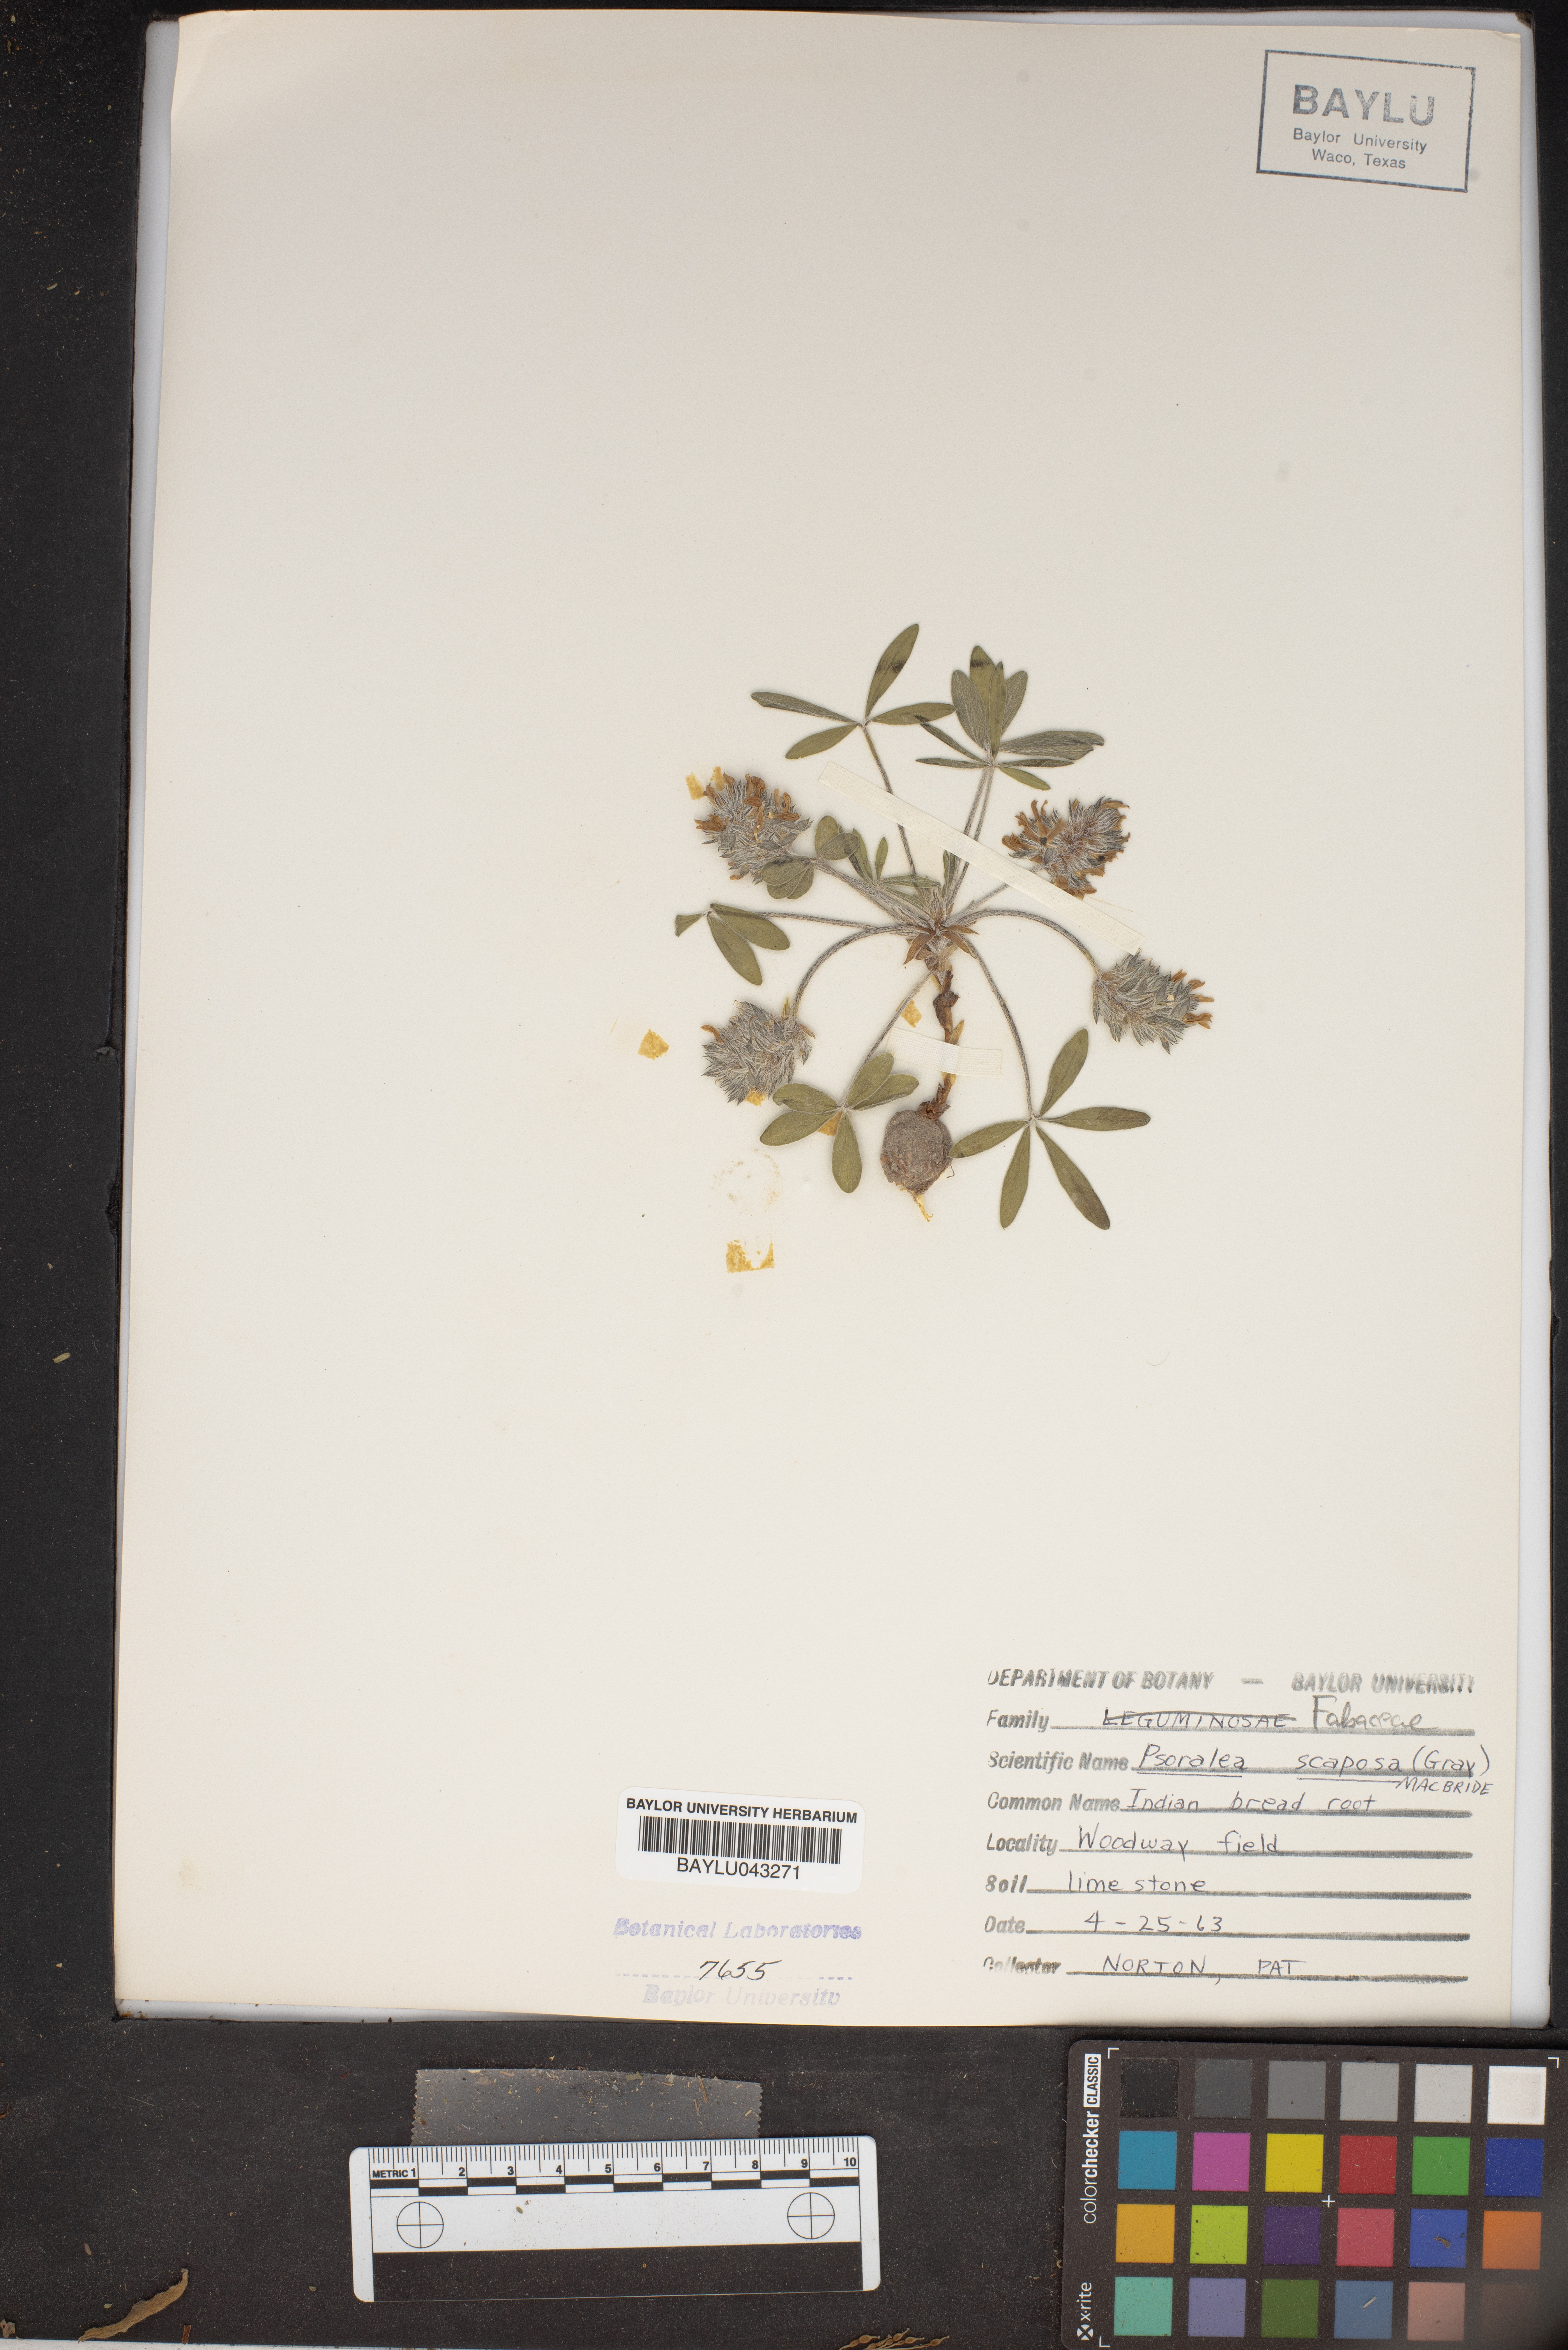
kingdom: Plantae
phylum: Tracheophyta
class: Magnoliopsida
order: Fabales
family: Fabaceae
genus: Pediomelum
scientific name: Pediomelum hypogaeum
